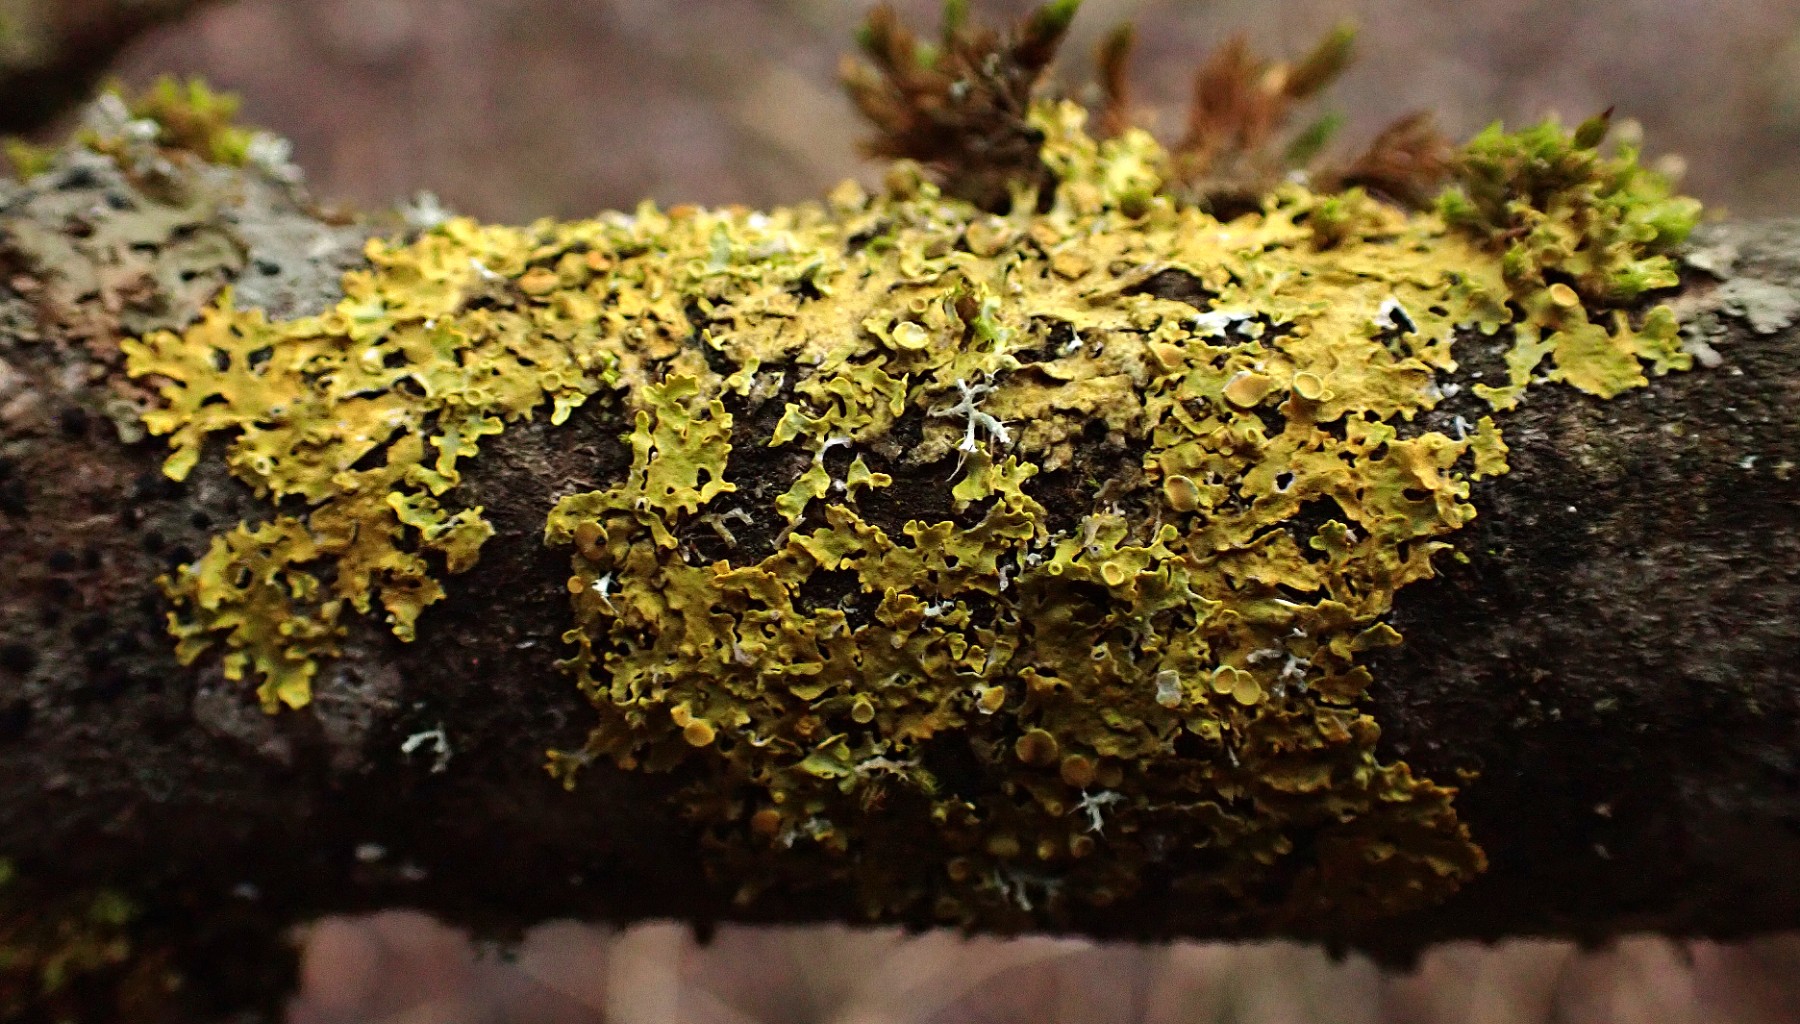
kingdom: Fungi
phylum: Ascomycota
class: Lecanoromycetes
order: Teloschistales
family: Teloschistaceae
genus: Xanthoria
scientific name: Xanthoria parietina
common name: almindelig væggelav
